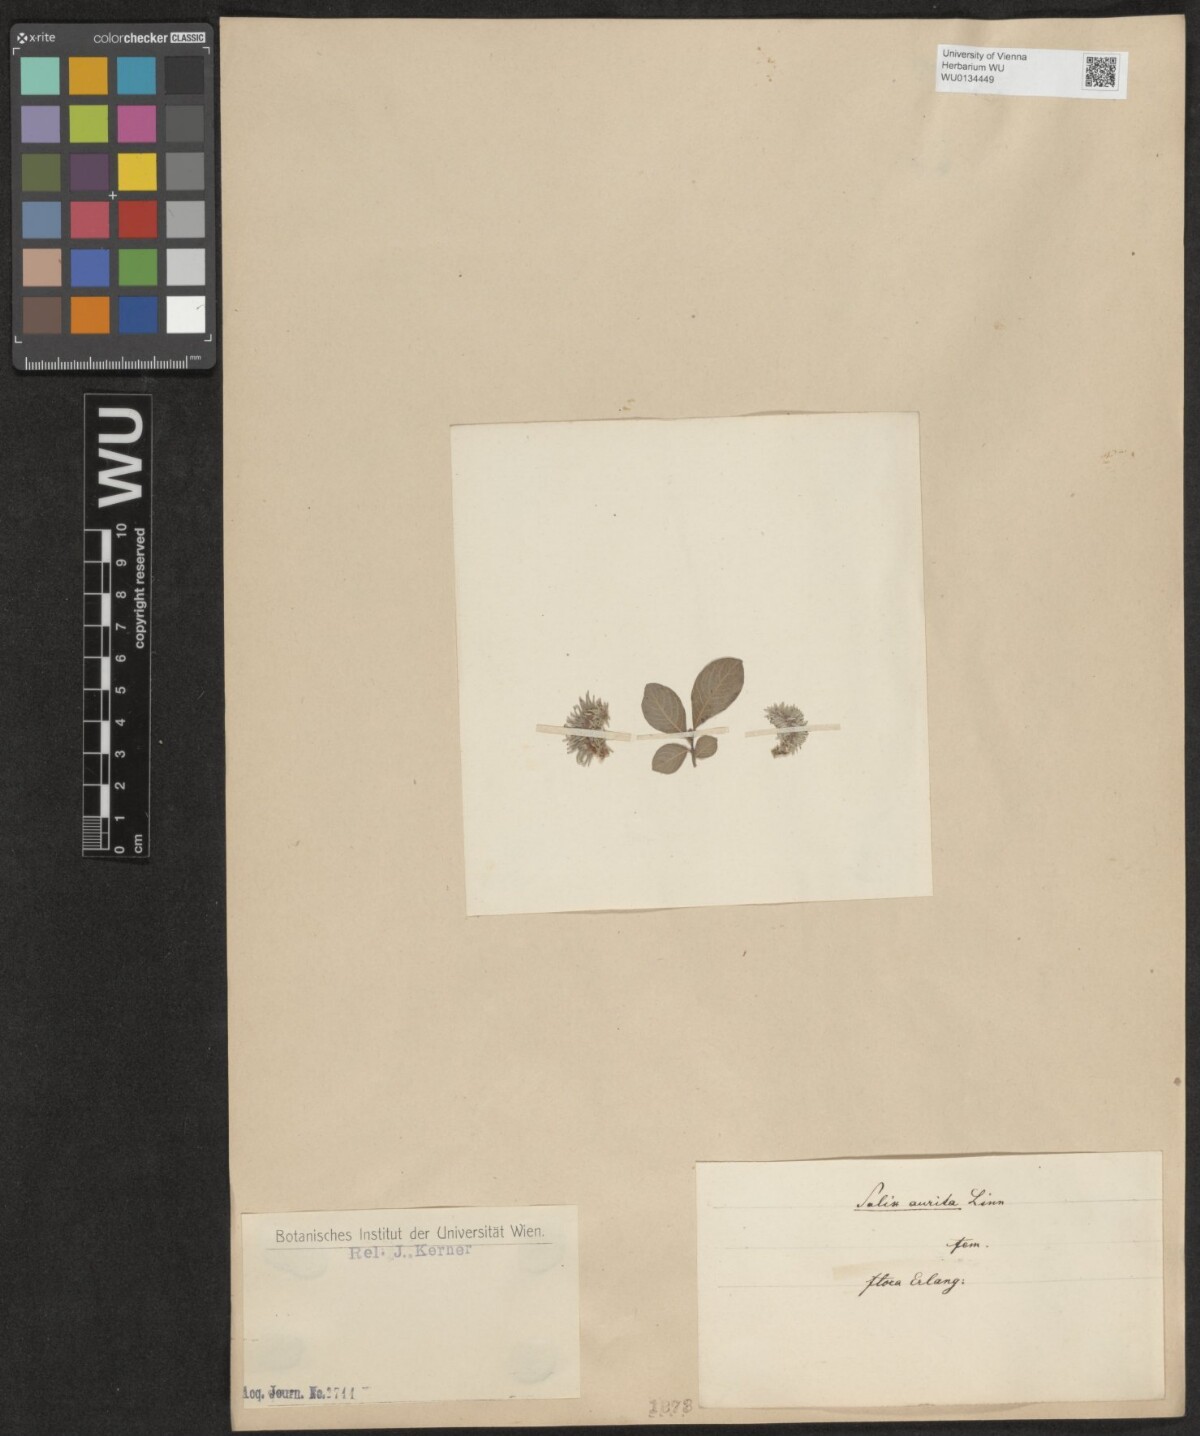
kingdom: Plantae
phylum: Tracheophyta
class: Magnoliopsida
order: Malpighiales
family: Salicaceae
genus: Salix
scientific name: Salix aurita
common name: Eared willow
